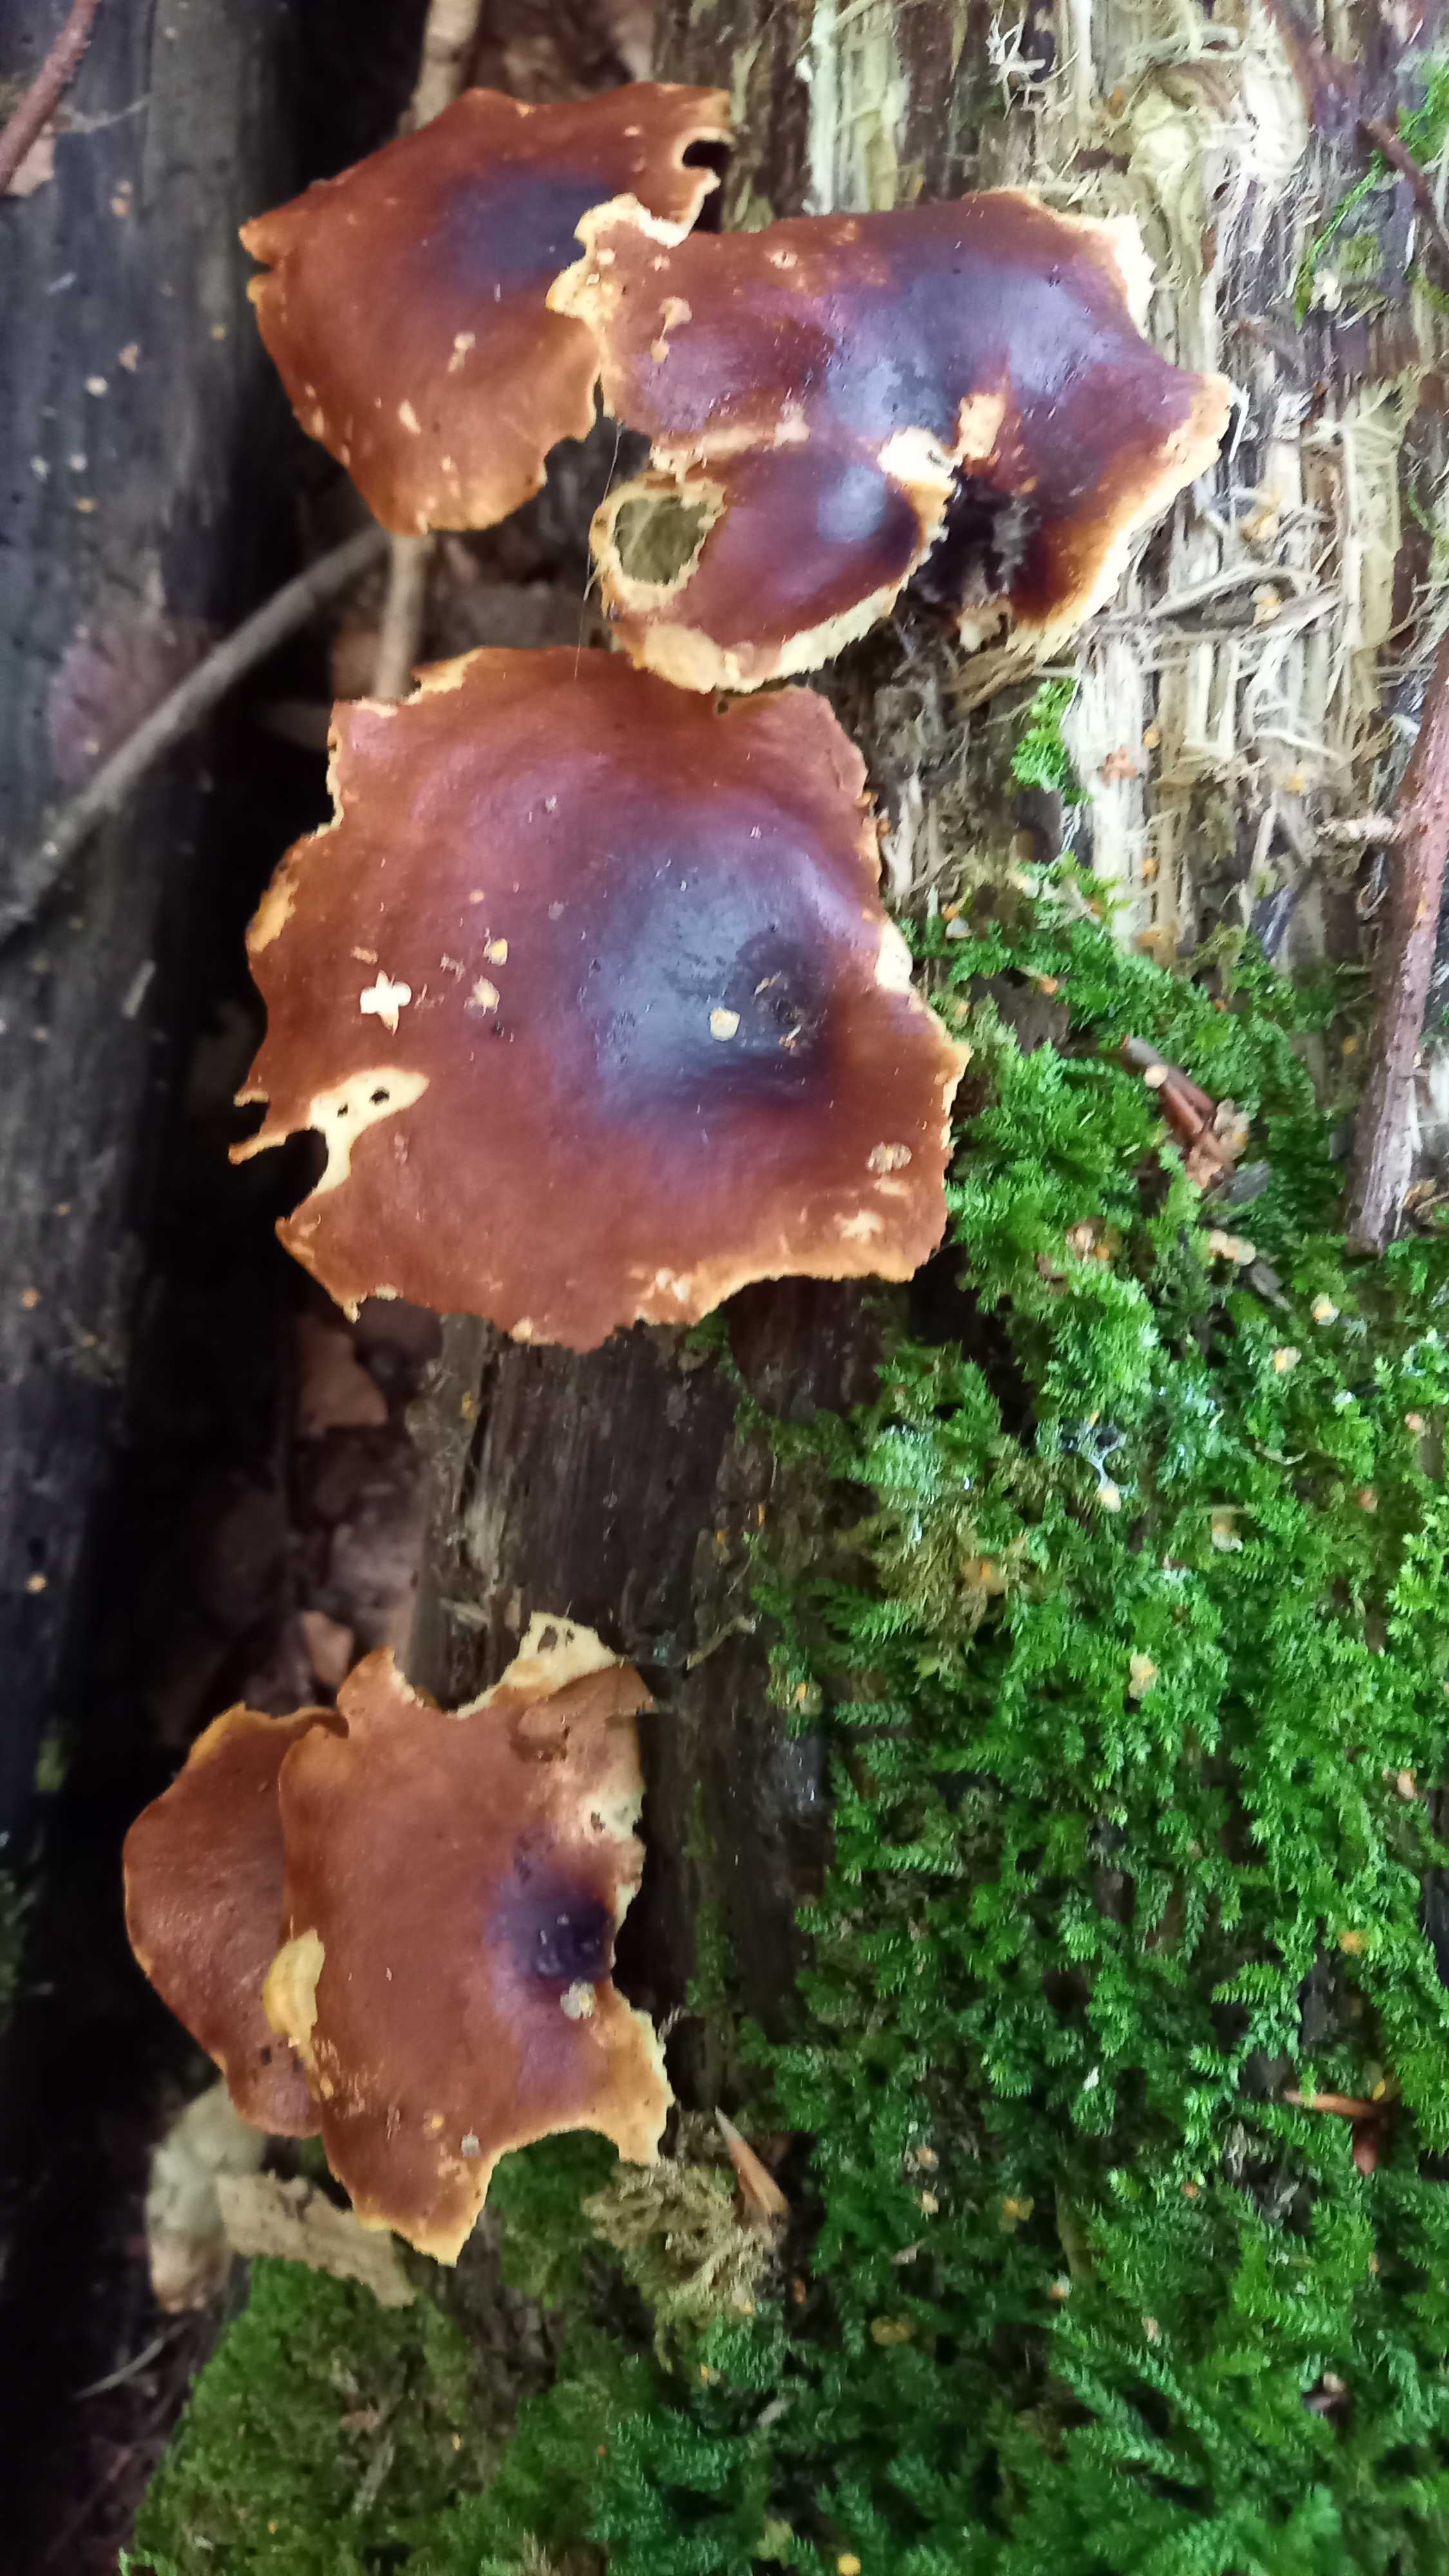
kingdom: Fungi
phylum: Basidiomycota
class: Agaricomycetes
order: Polyporales
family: Polyporaceae
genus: Picipes
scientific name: Picipes badius
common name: kastaniebrun stilkporesvamp
